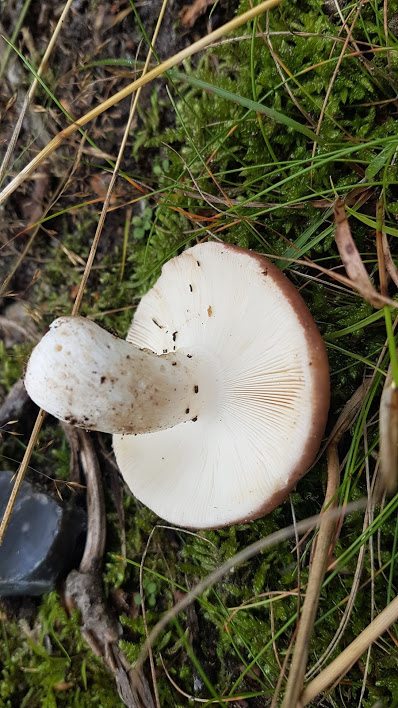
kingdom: Fungi
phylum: Basidiomycota
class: Agaricomycetes
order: Russulales
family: Russulaceae
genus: Russula
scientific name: Russula vesca
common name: spiselig skørhat
